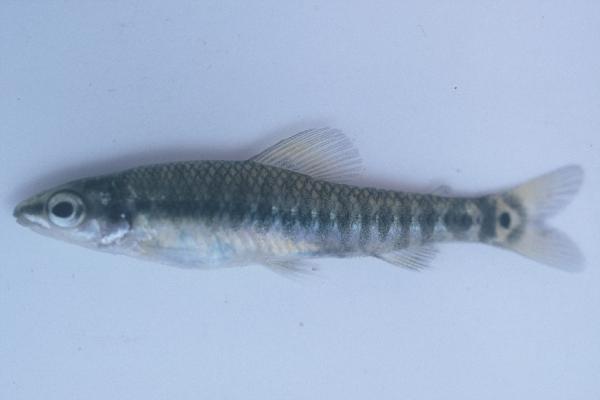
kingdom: Animalia
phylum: Chordata
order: Characiformes
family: Distichodontidae
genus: Nannocharax
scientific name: Nannocharax multifasciatus
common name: Multibar citharine
